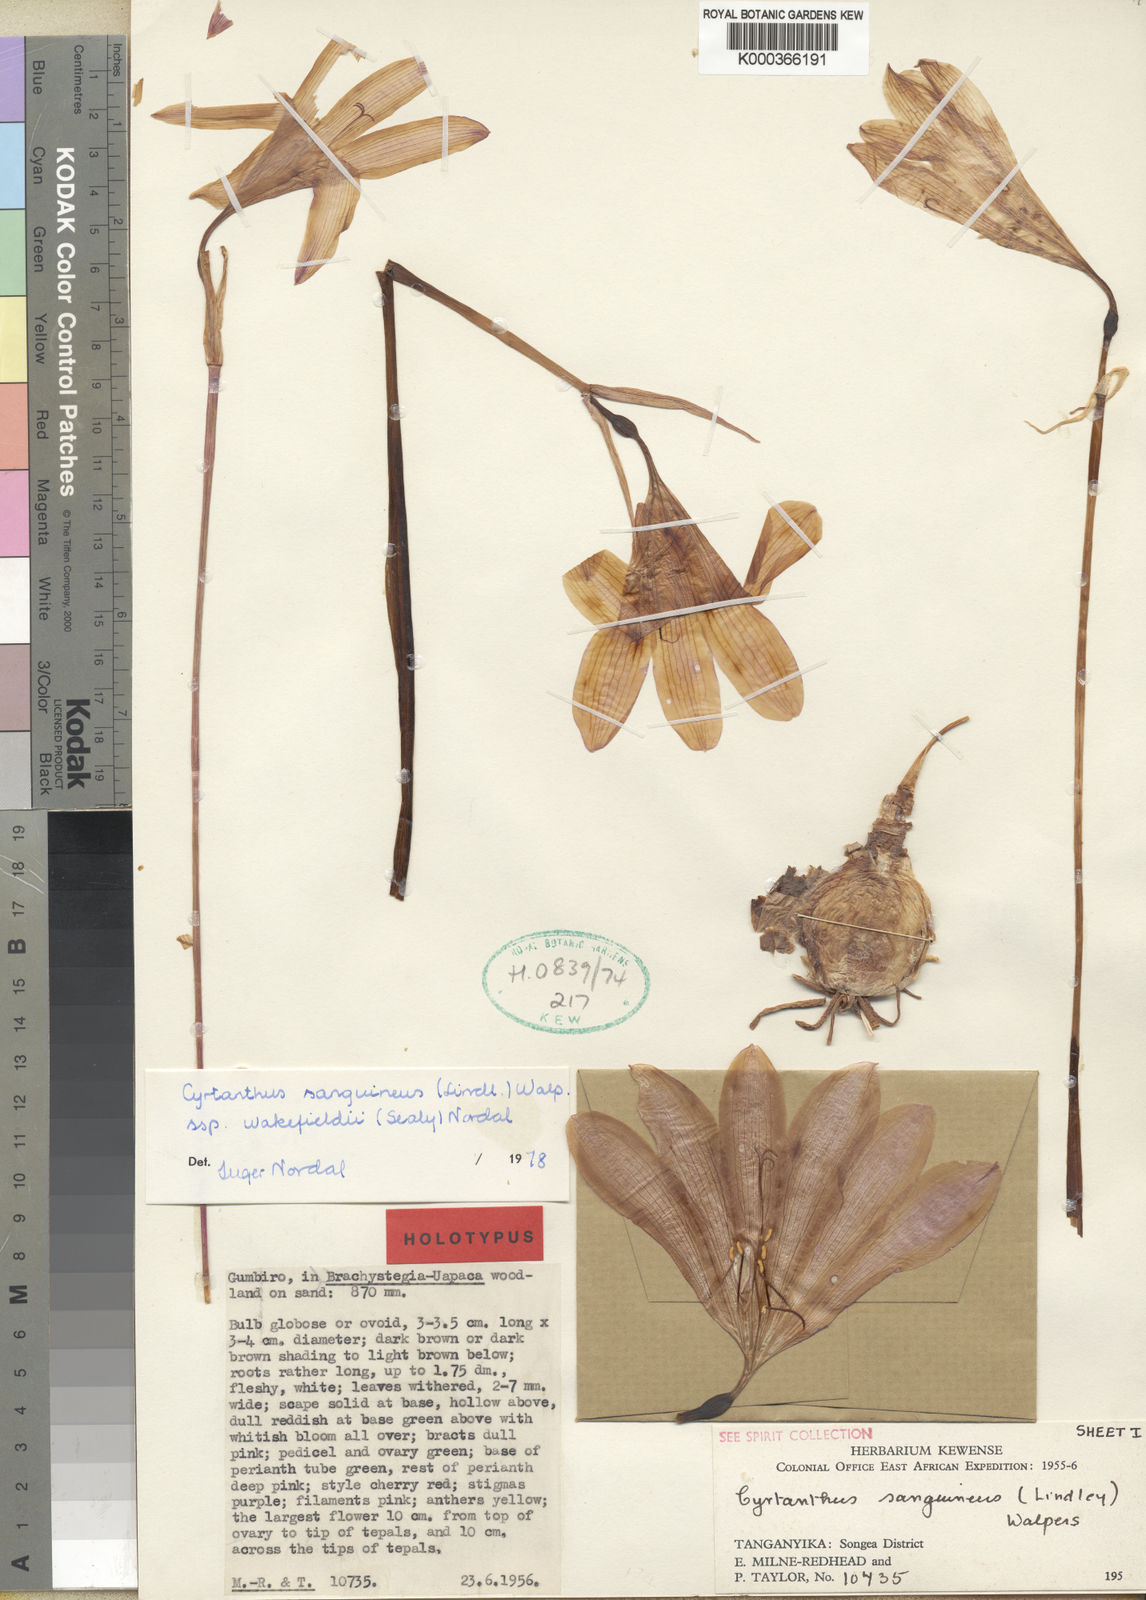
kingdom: Plantae
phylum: Tracheophyta
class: Liliopsida
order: Asparagales
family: Amaryllidaceae
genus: Cyrtanthus
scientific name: Cyrtanthus sanguineus
